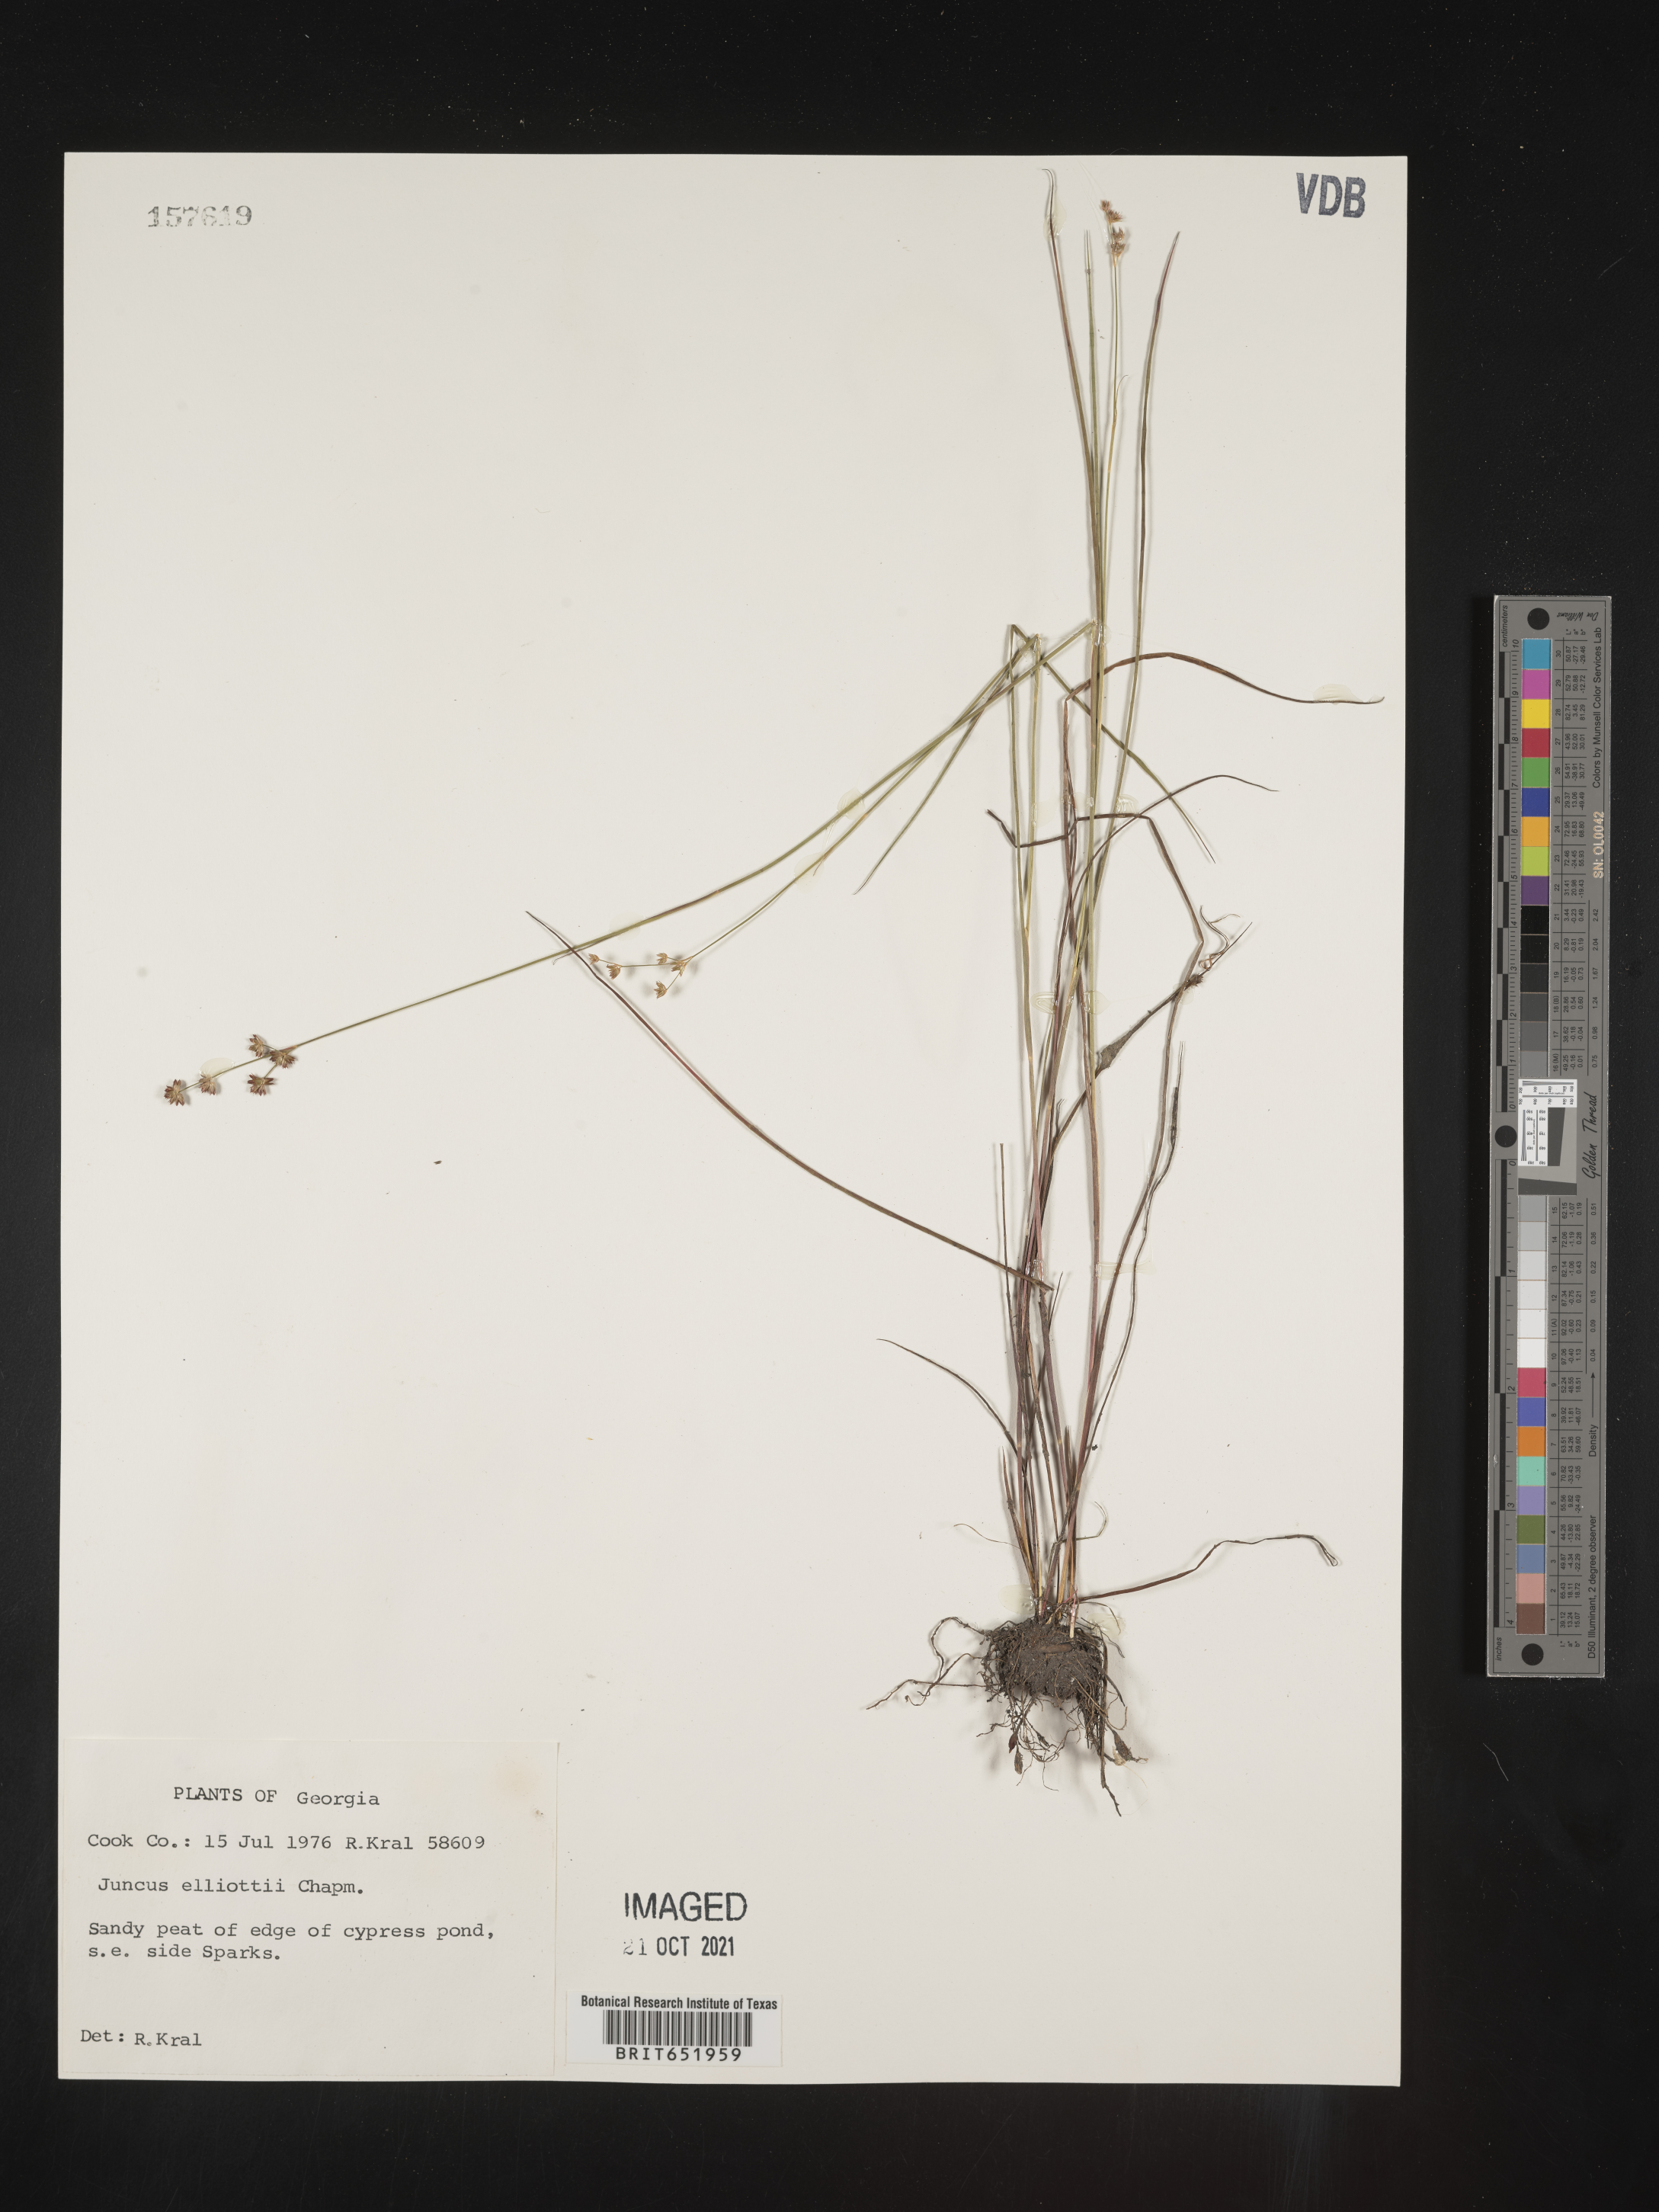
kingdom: Plantae
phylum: Tracheophyta
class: Liliopsida
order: Poales
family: Juncaceae
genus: Juncus
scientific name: Juncus elliottii
